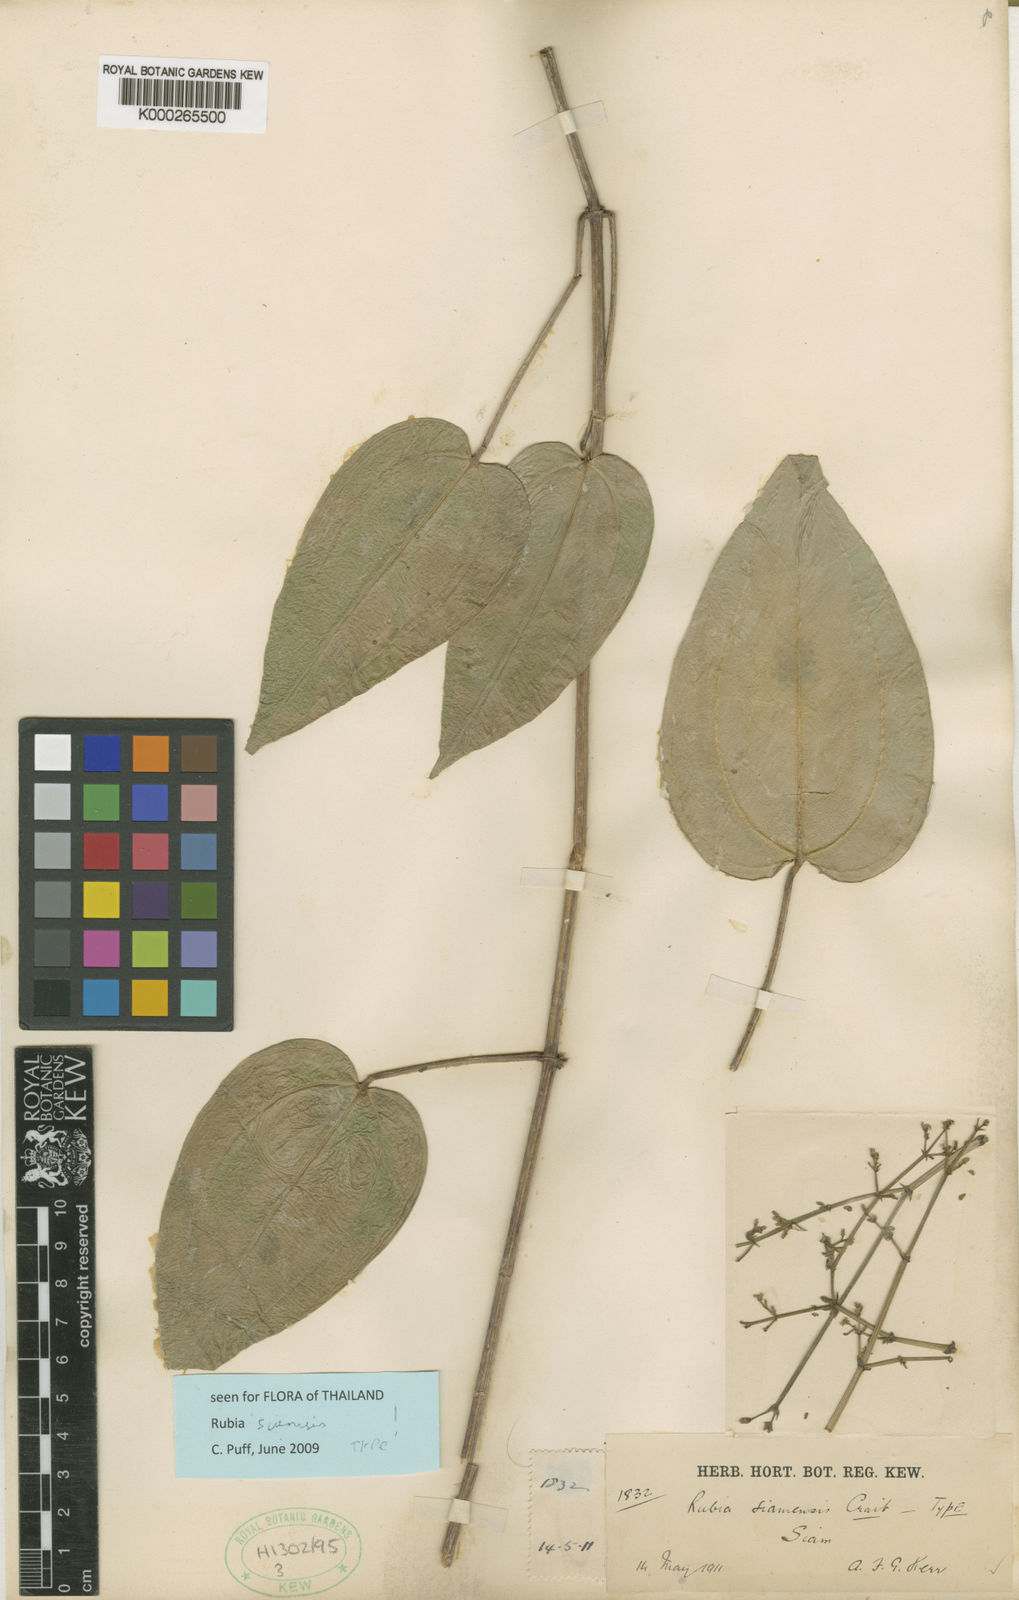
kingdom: Plantae
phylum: Tracheophyta
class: Magnoliopsida
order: Gentianales
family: Rubiaceae
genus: Rubia
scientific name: Rubia siamensis
